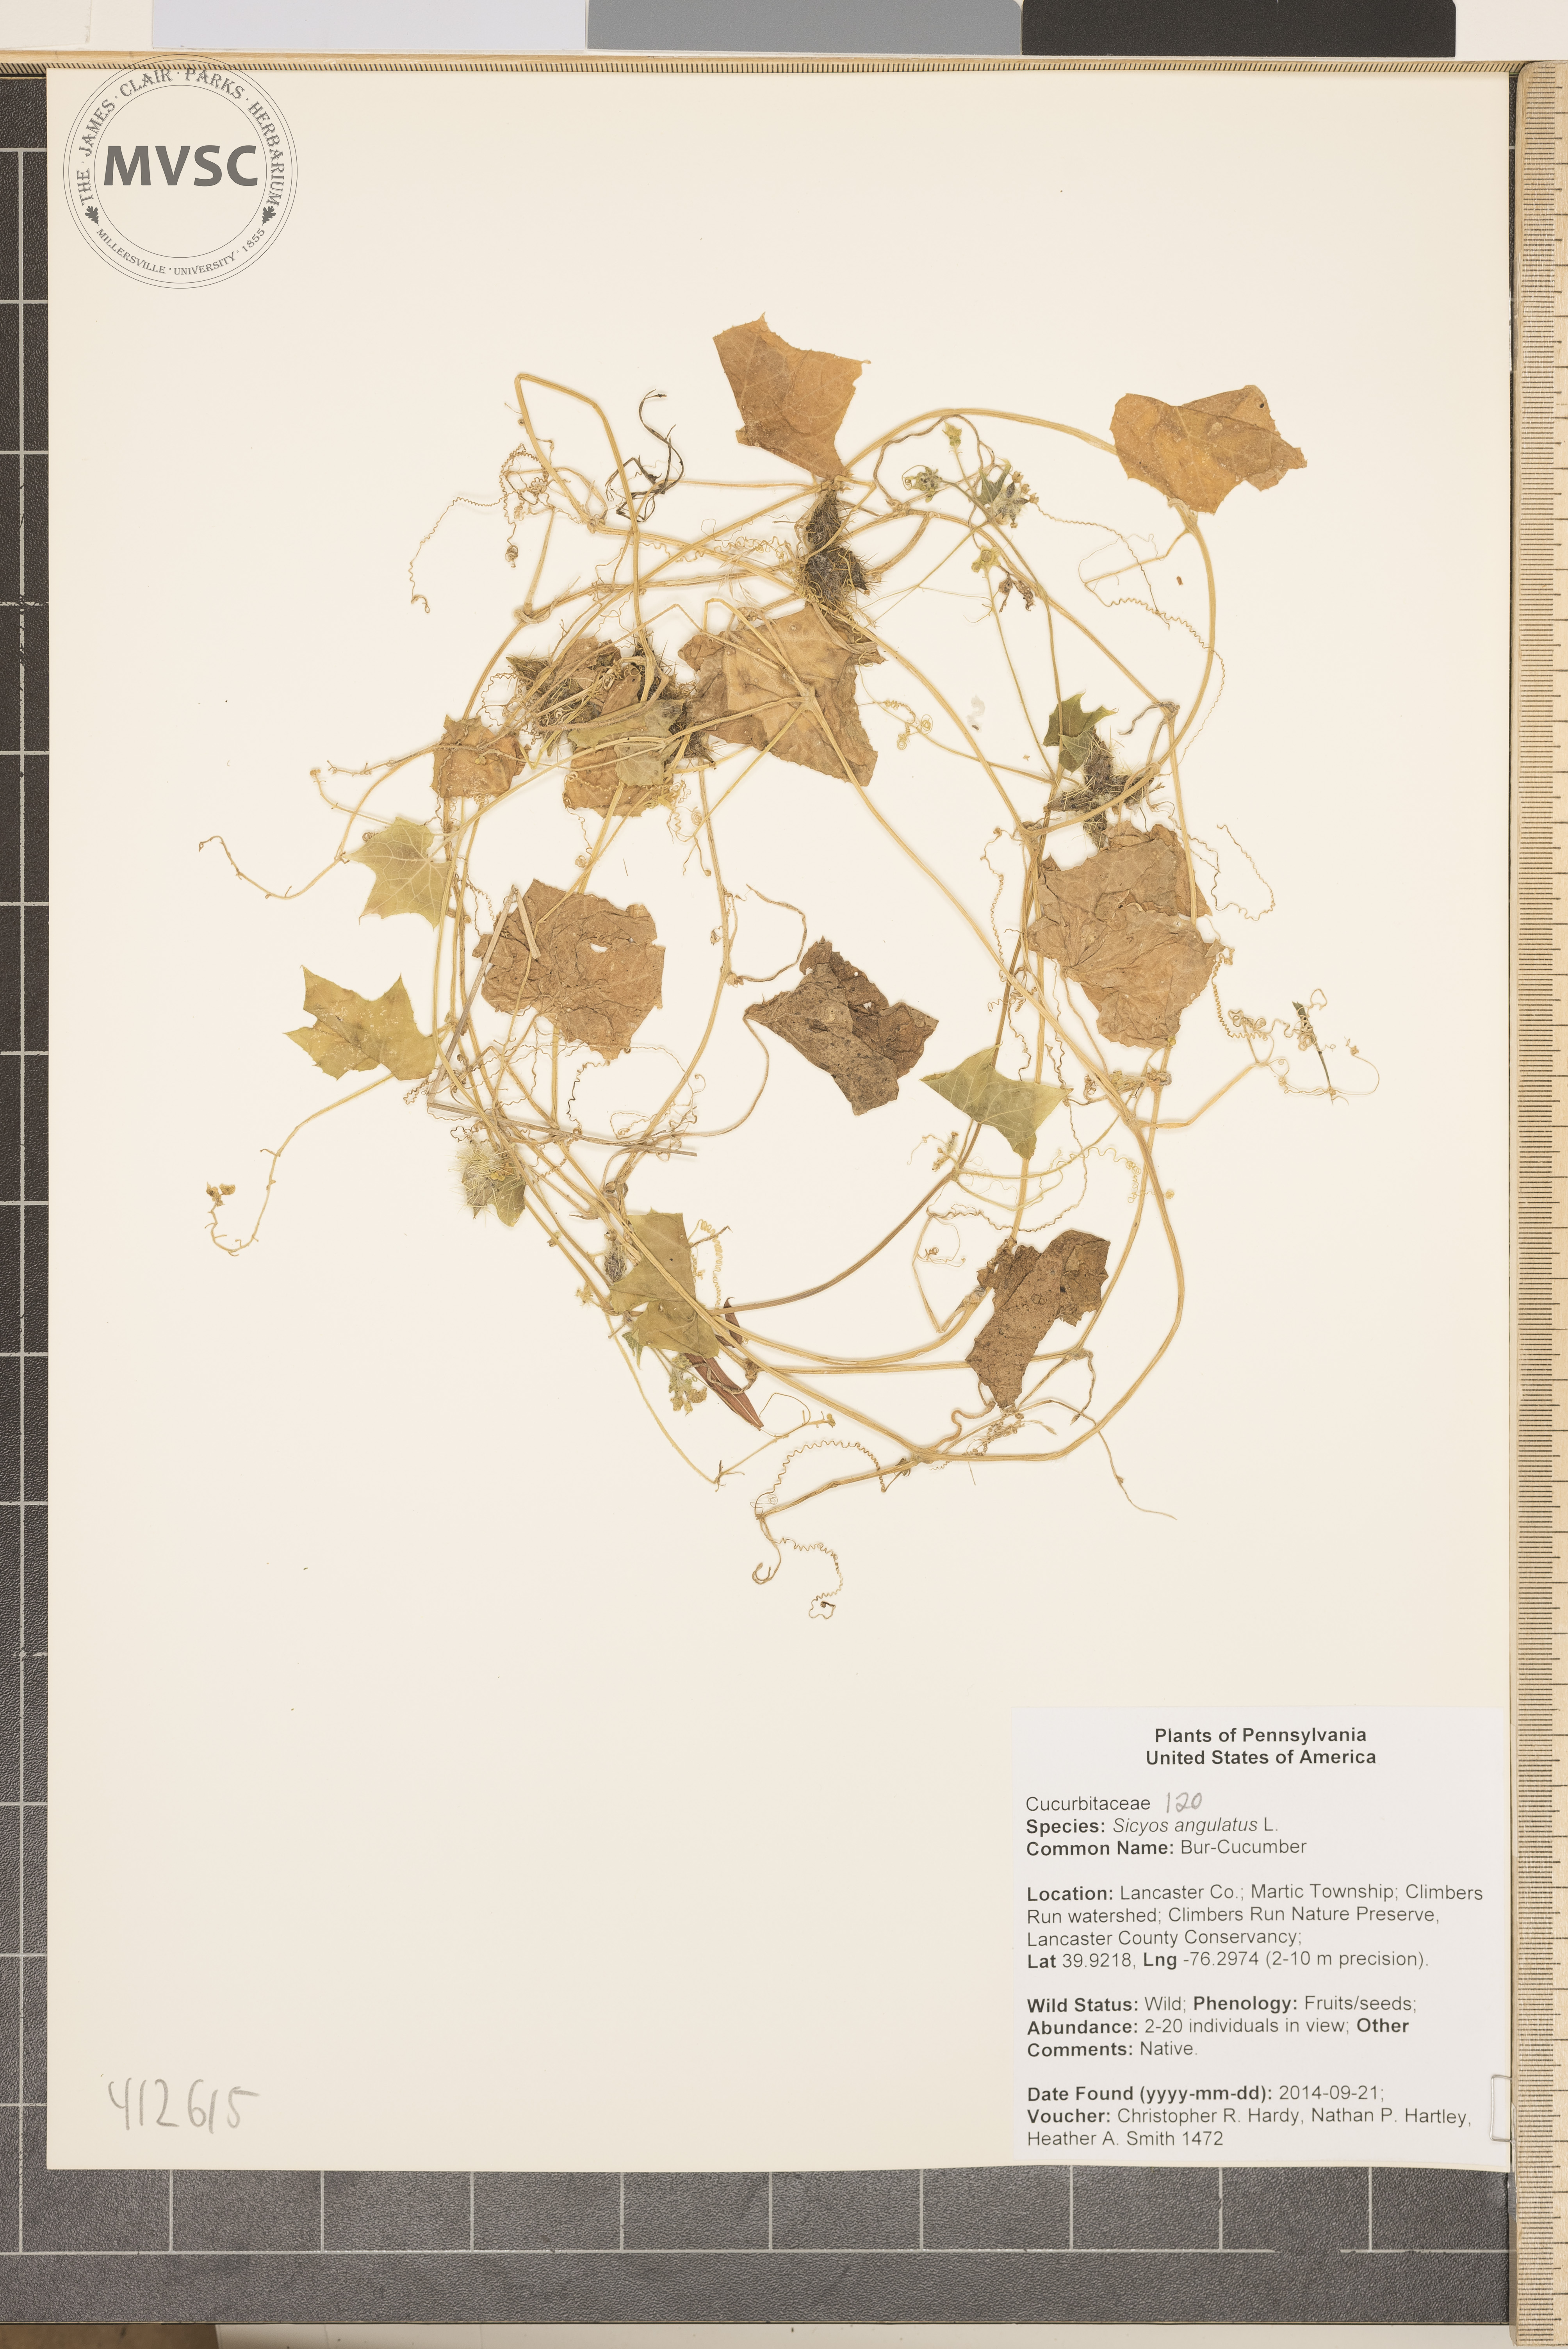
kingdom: Plantae
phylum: Tracheophyta
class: Magnoliopsida
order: Cucurbitales
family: Cucurbitaceae
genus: Sicyos
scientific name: Sicyos angulatus
